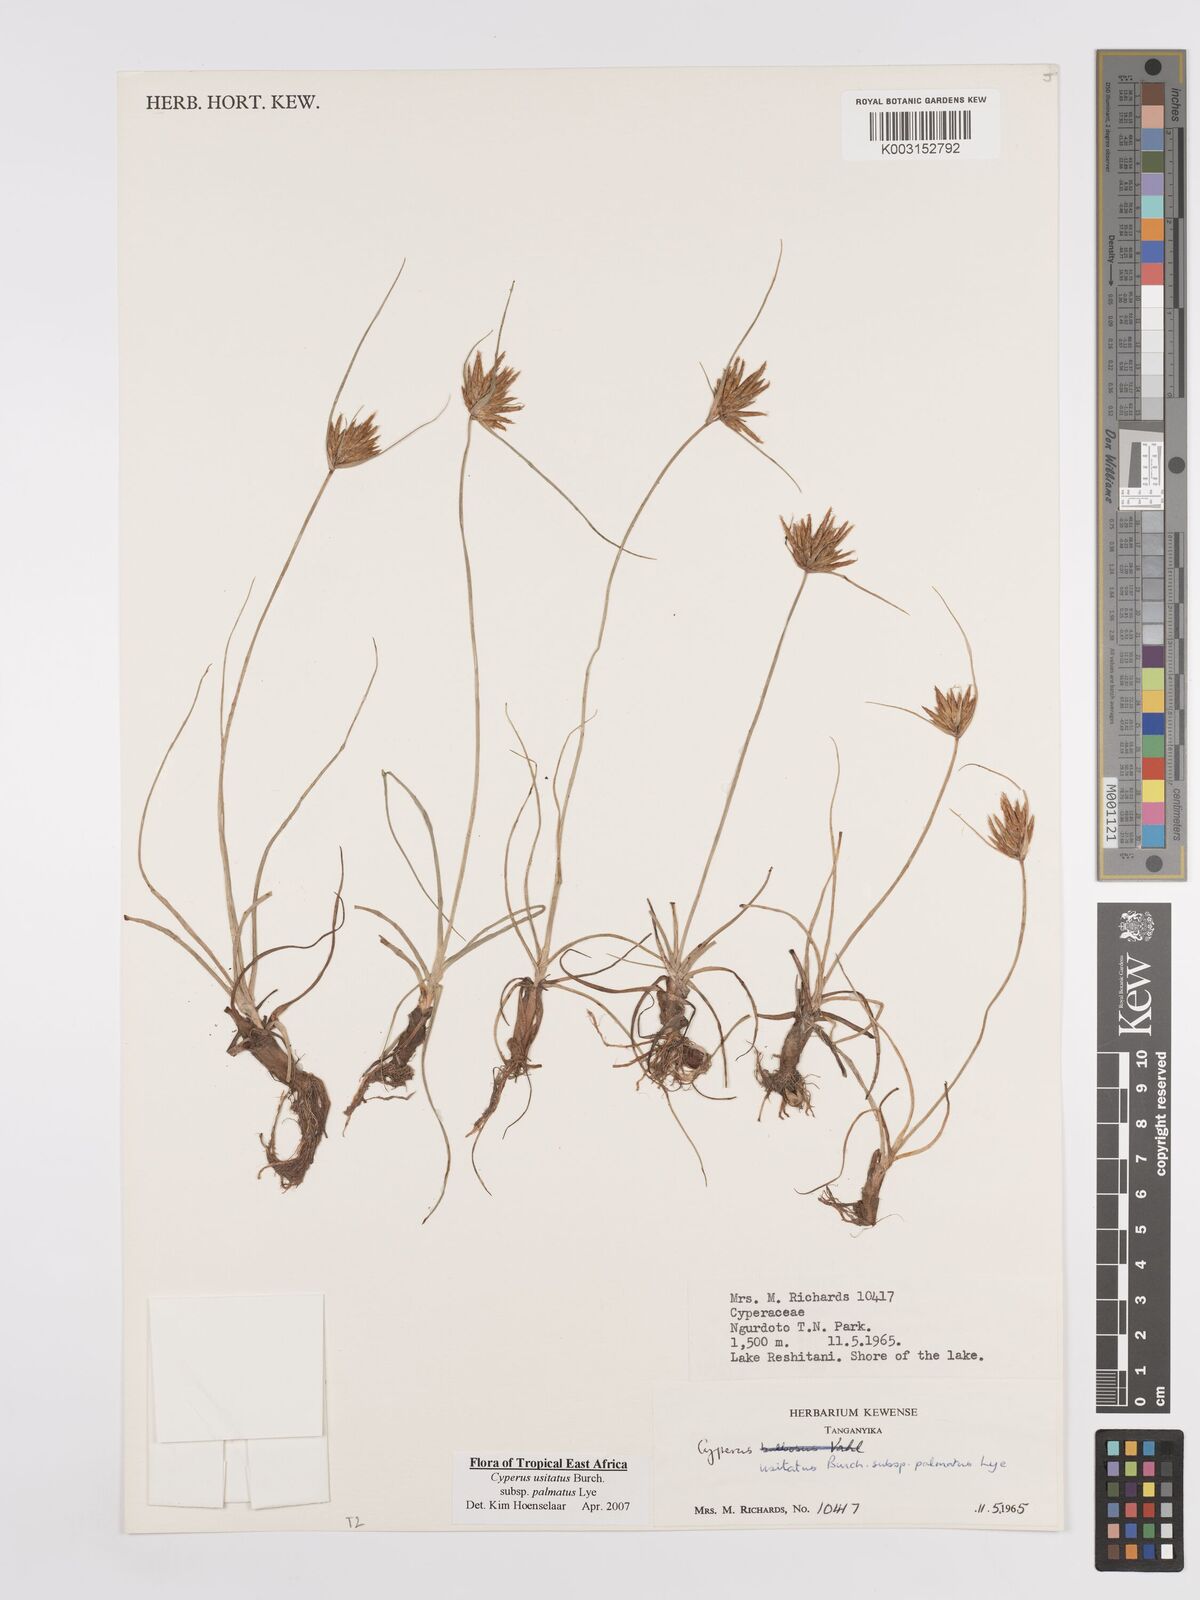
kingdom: Plantae
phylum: Tracheophyta
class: Liliopsida
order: Poales
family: Cyperaceae
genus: Cyperus
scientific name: Cyperus palmatus
